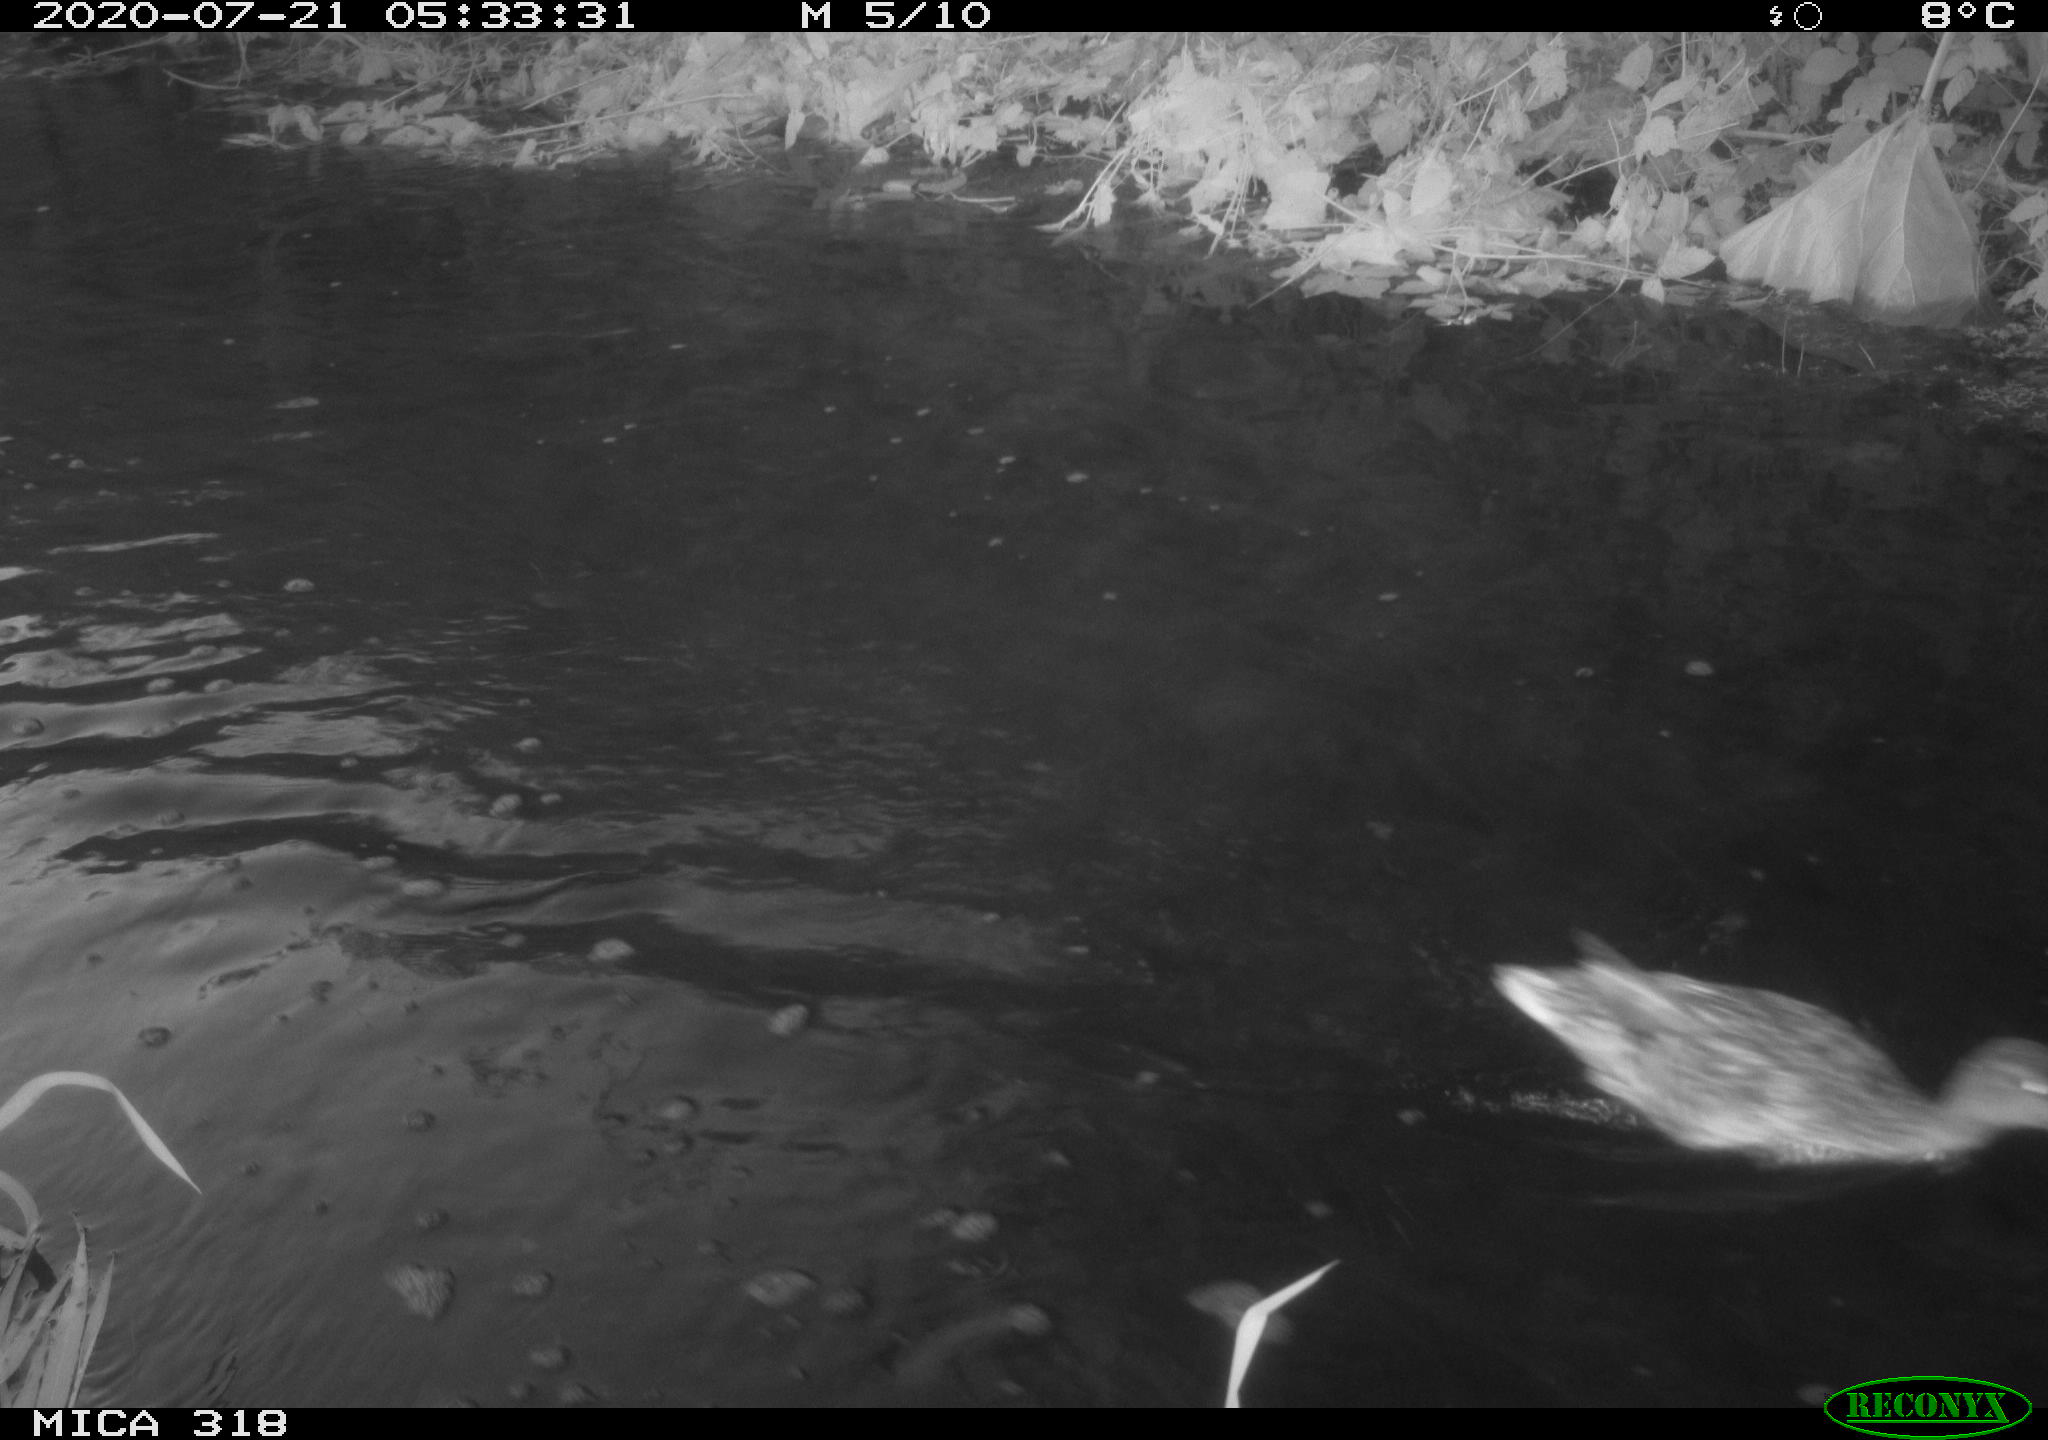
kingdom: Animalia
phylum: Chordata
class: Aves
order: Anseriformes
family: Anatidae
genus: Anas
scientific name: Anas platyrhynchos
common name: Mallard
